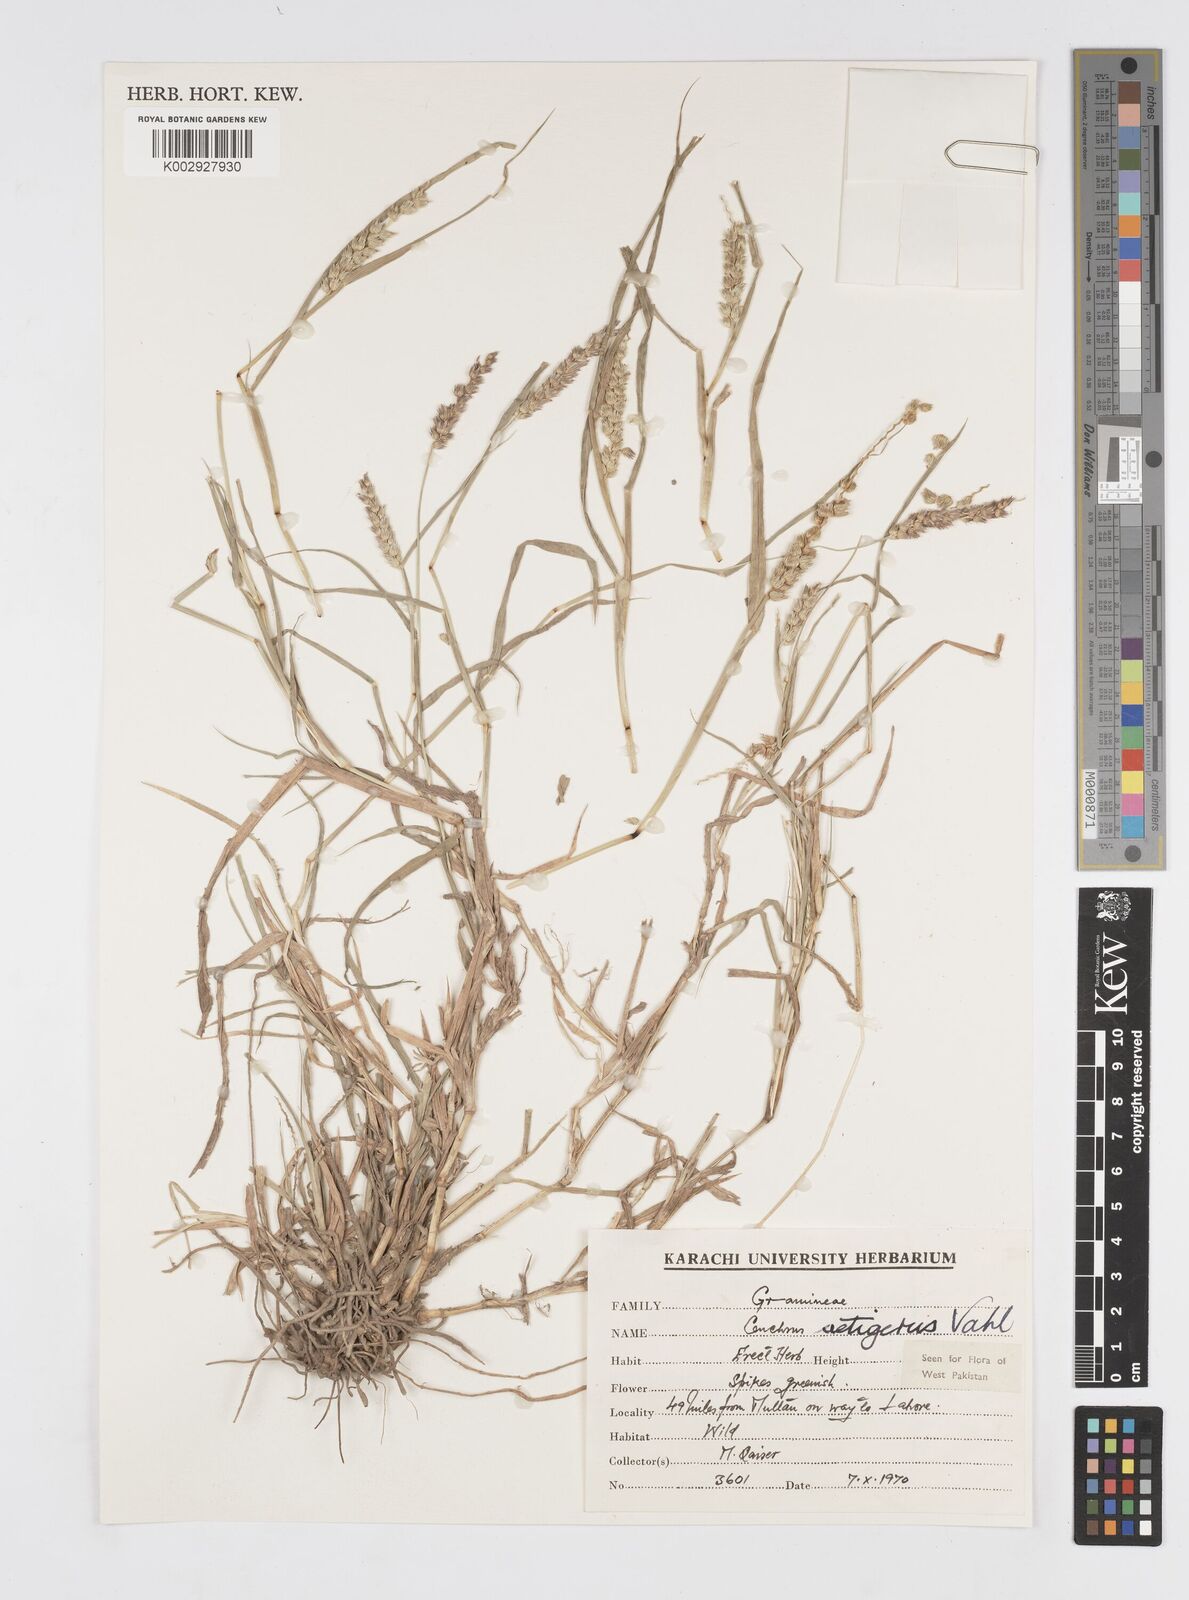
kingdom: Plantae
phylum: Tracheophyta
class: Liliopsida
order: Poales
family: Poaceae
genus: Cenchrus
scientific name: Cenchrus setigerus
